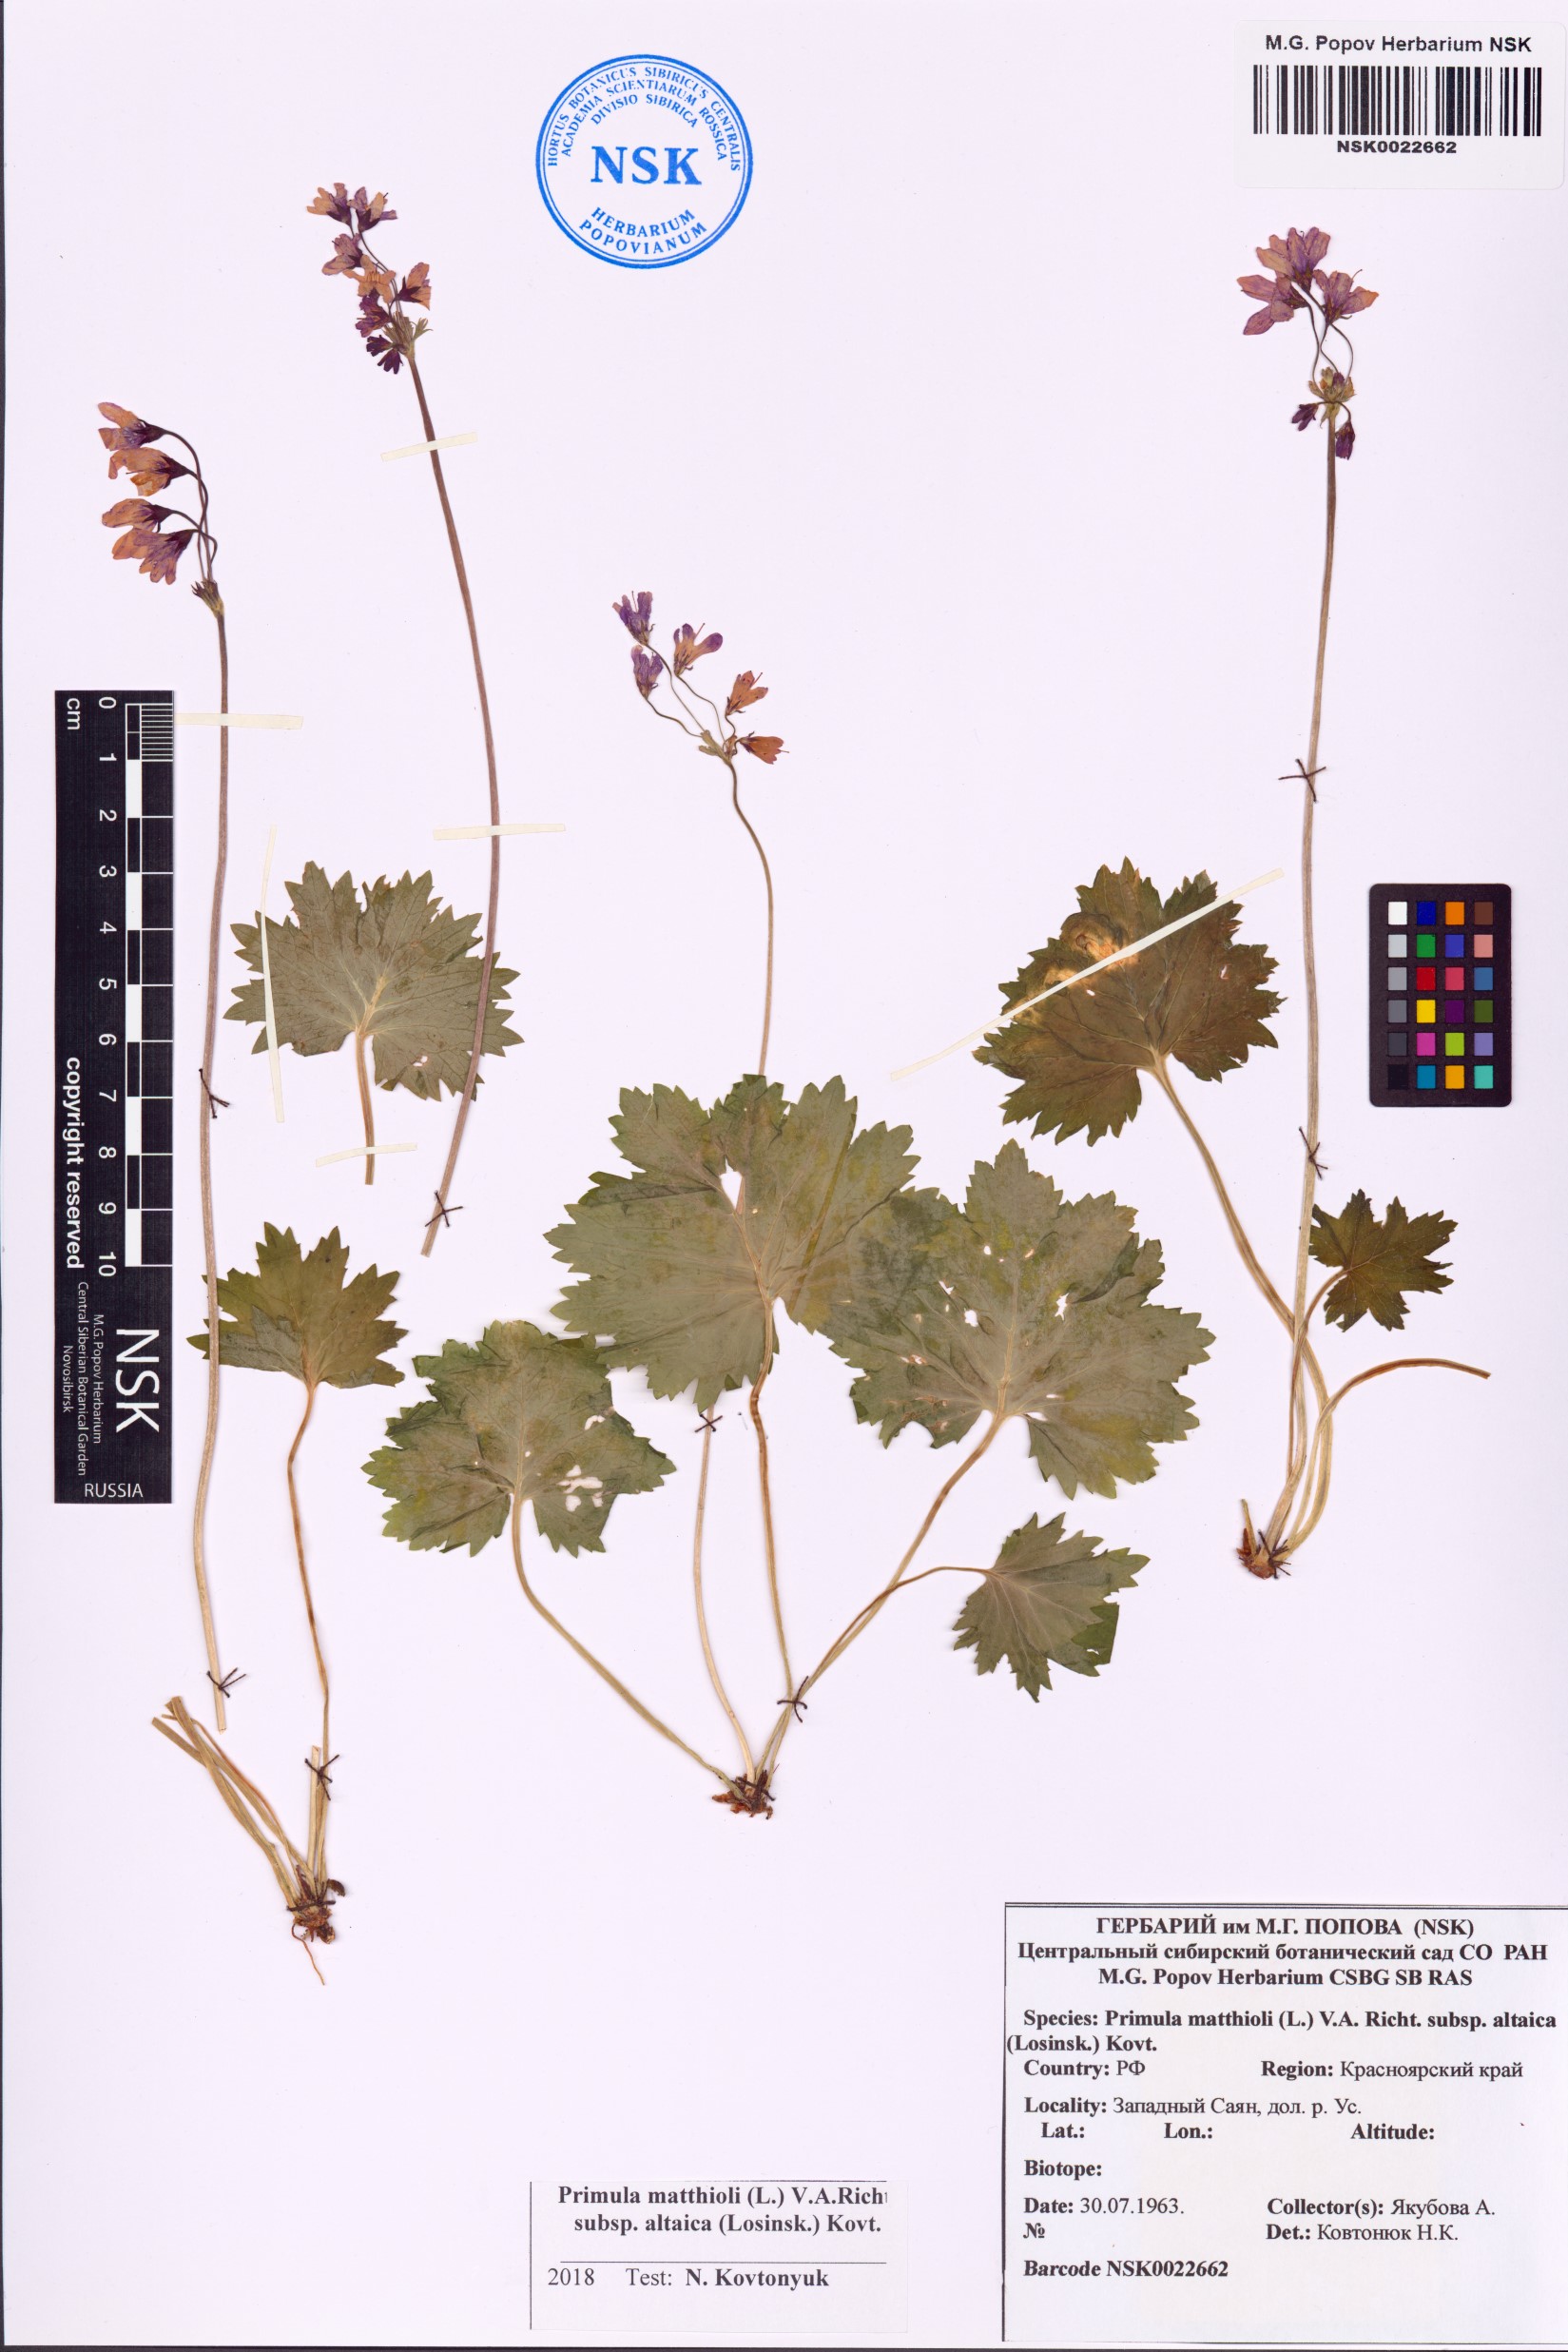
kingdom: Plantae
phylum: Tracheophyta
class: Magnoliopsida
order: Ericales
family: Primulaceae
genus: Primula
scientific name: Primula matthioli
